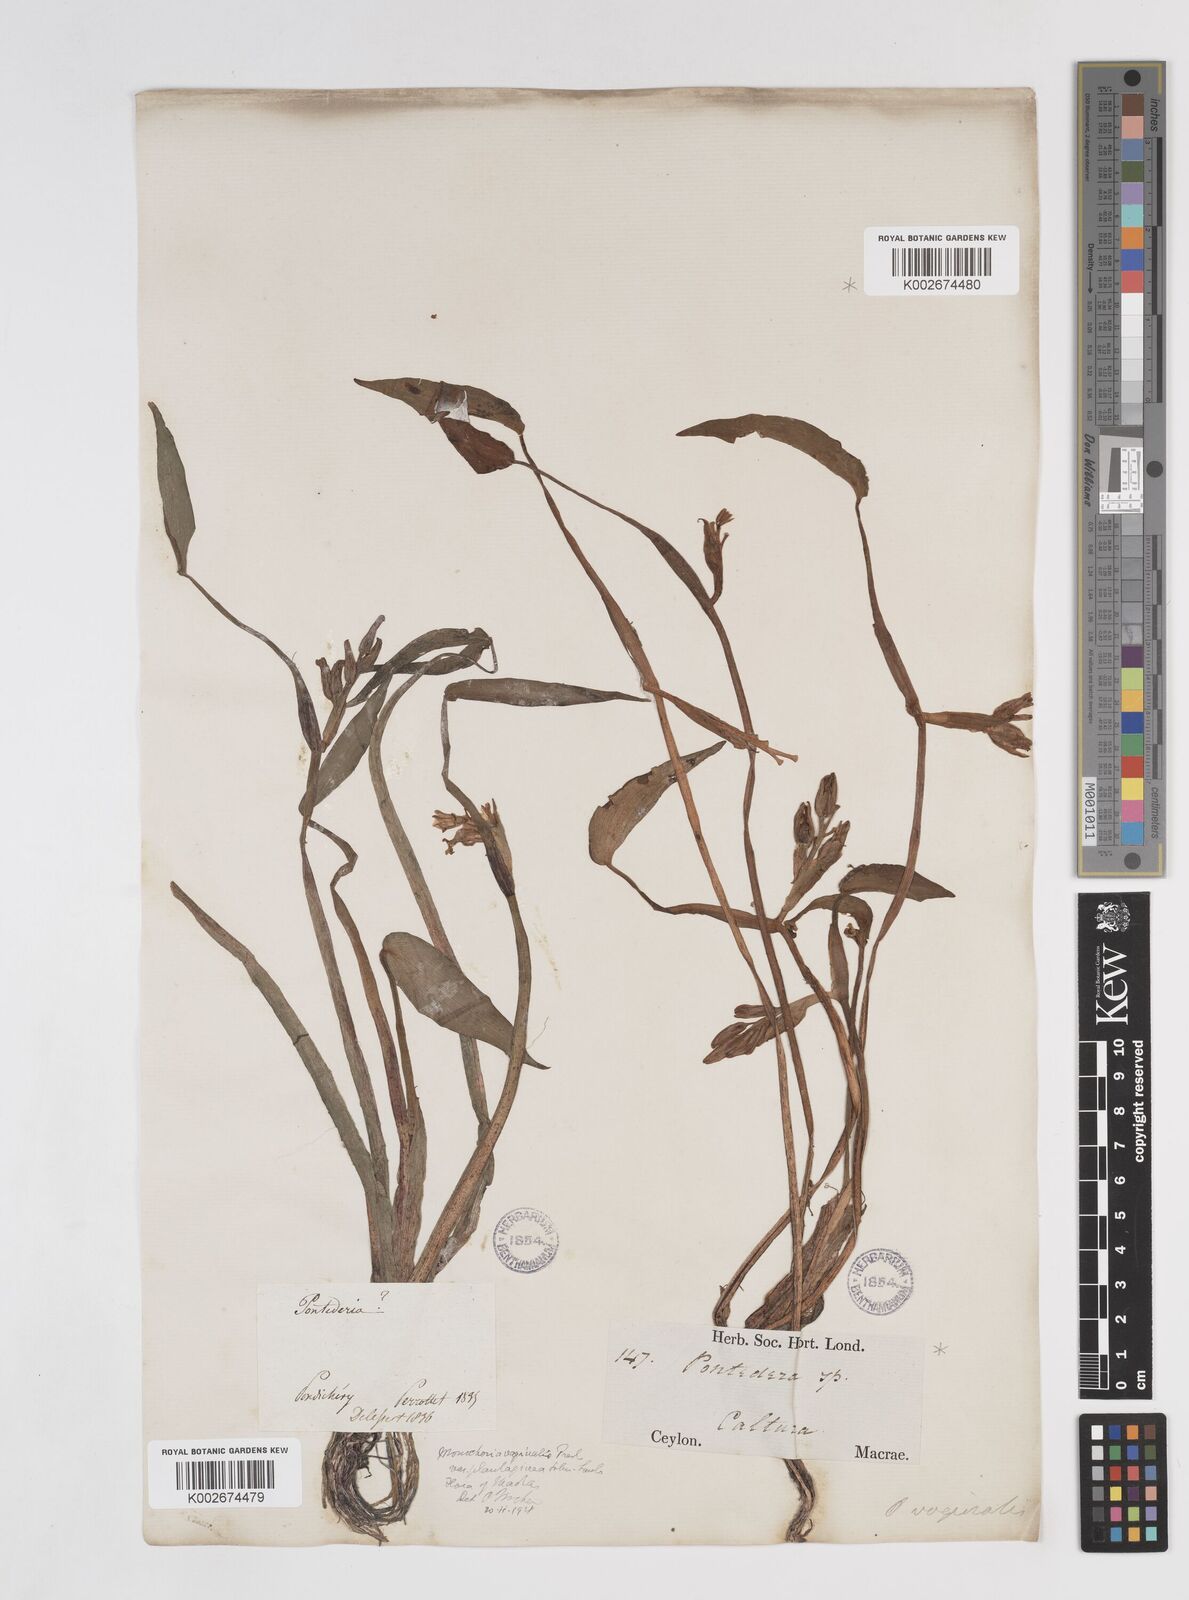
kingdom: Plantae
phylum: Tracheophyta
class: Liliopsida
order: Commelinales
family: Pontederiaceae
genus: Pontederia
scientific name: Pontederia vaginalis
